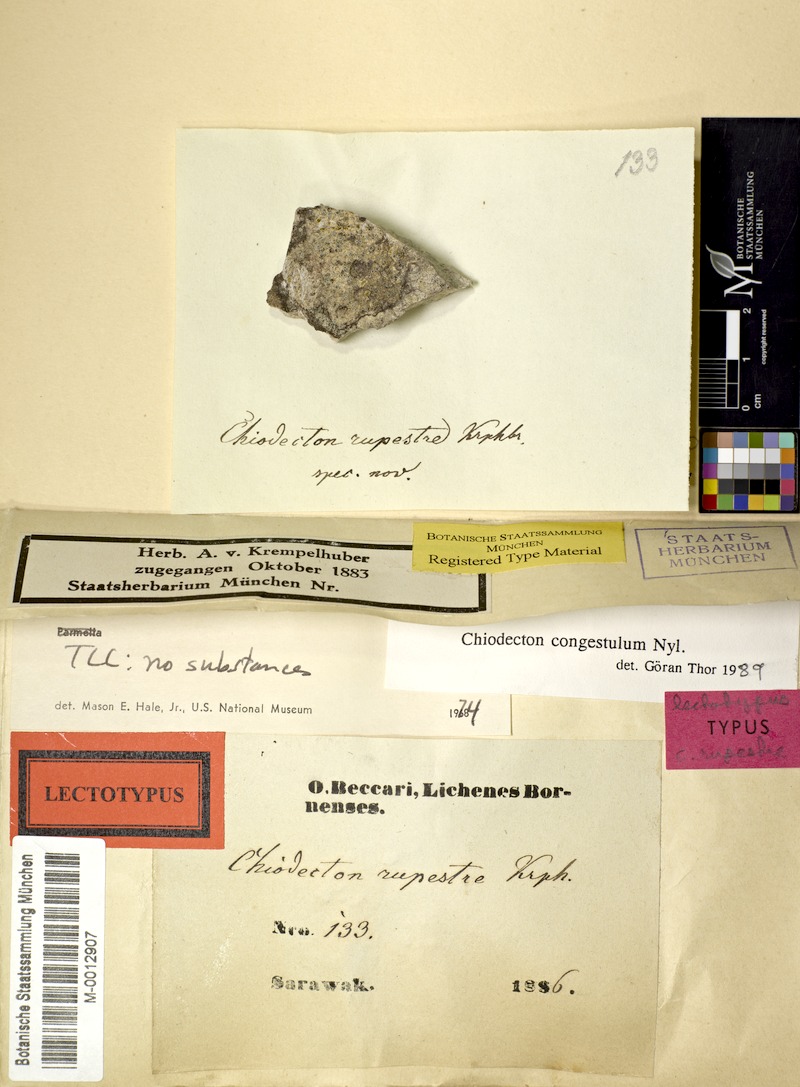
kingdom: Fungi
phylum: Ascomycota
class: Arthoniomycetes
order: Arthoniales
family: Roccellaceae
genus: Chiodecton
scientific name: Chiodecton congestulum
